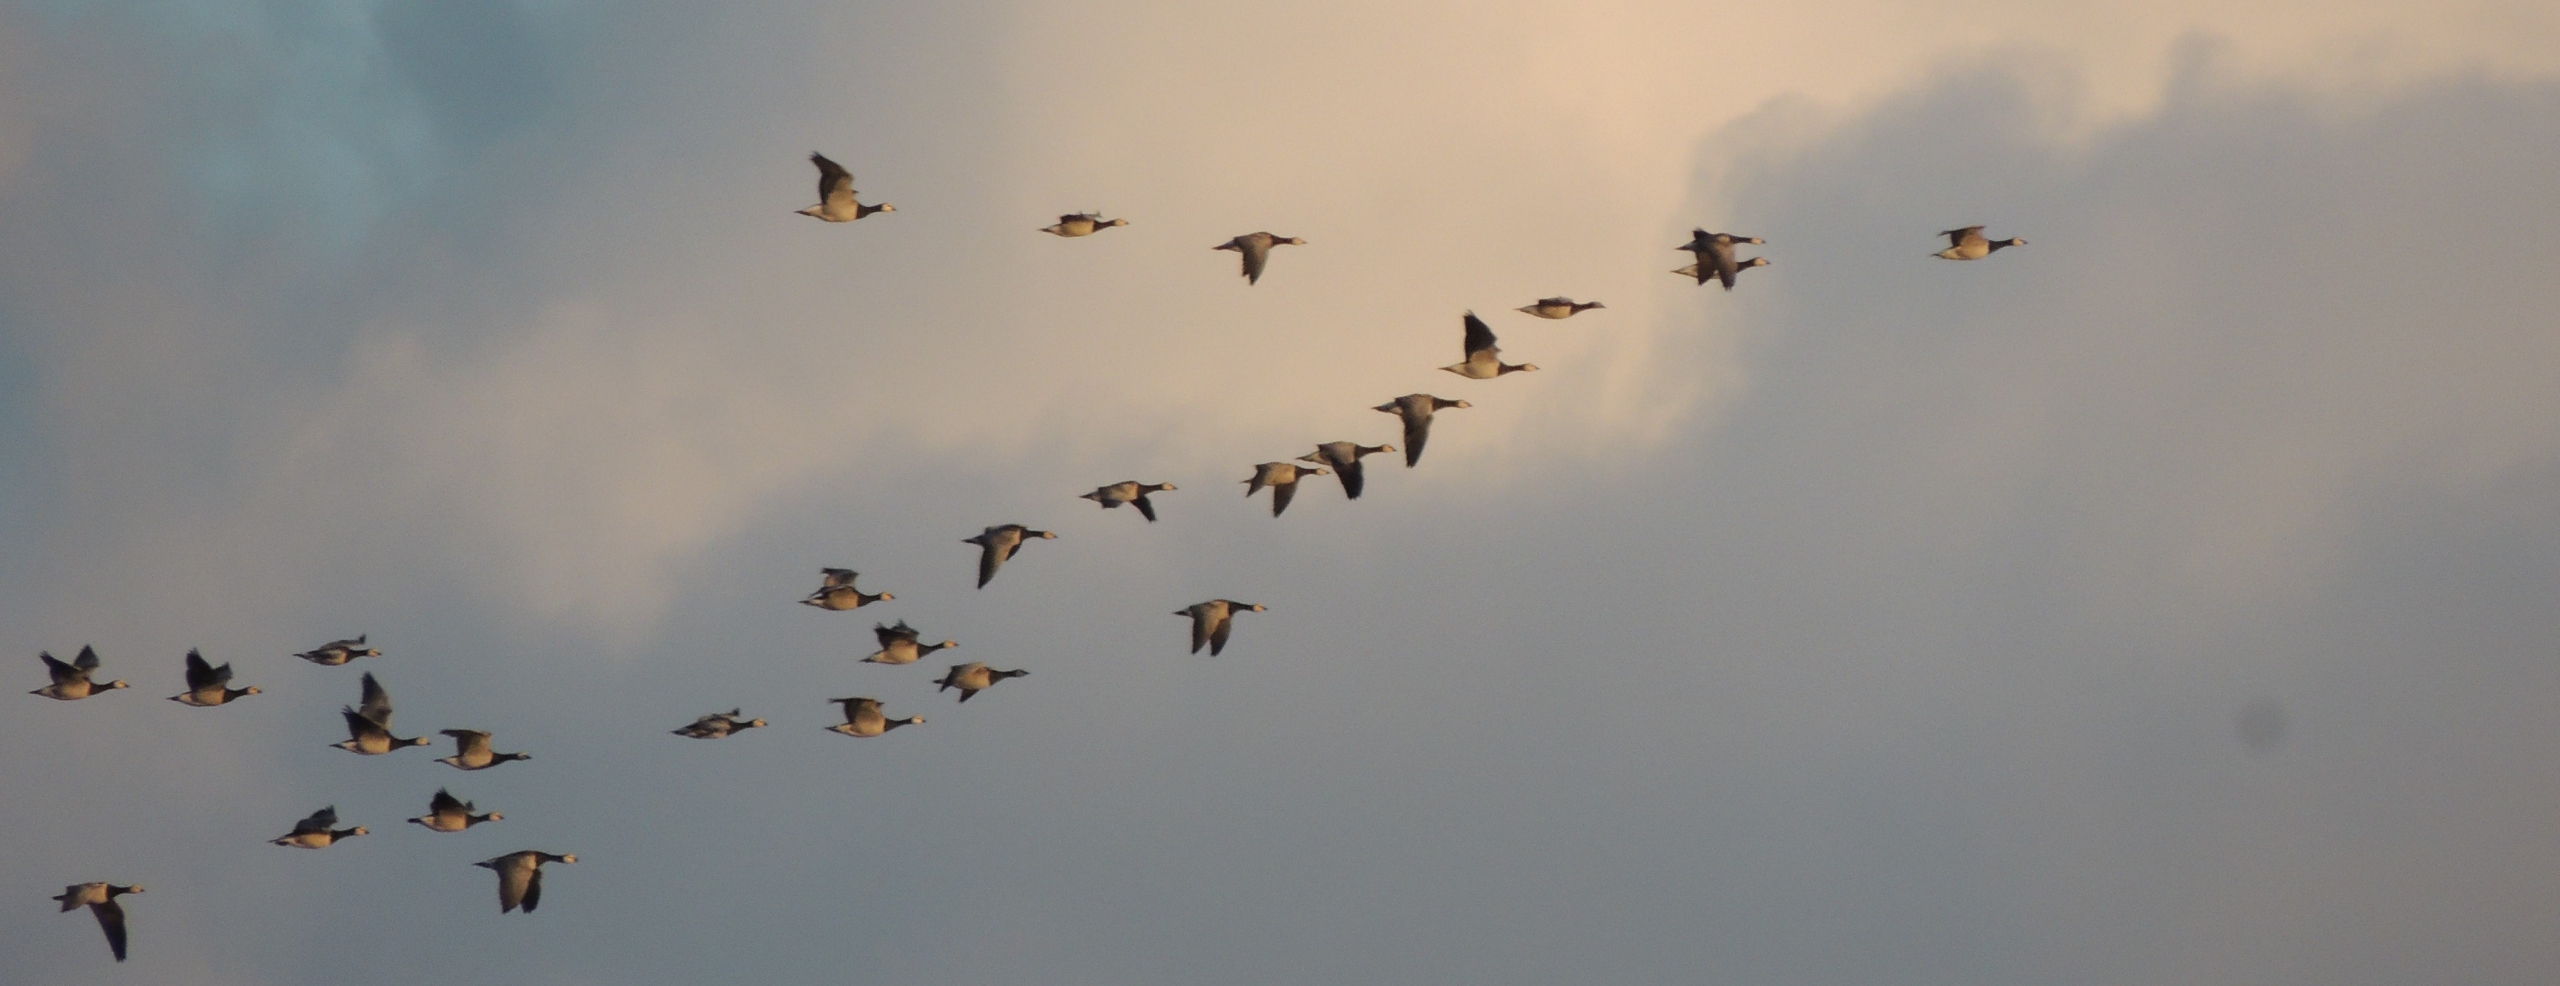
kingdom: Animalia
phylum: Chordata
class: Aves
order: Anseriformes
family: Anatidae
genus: Branta
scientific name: Branta leucopsis
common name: Bramgås
